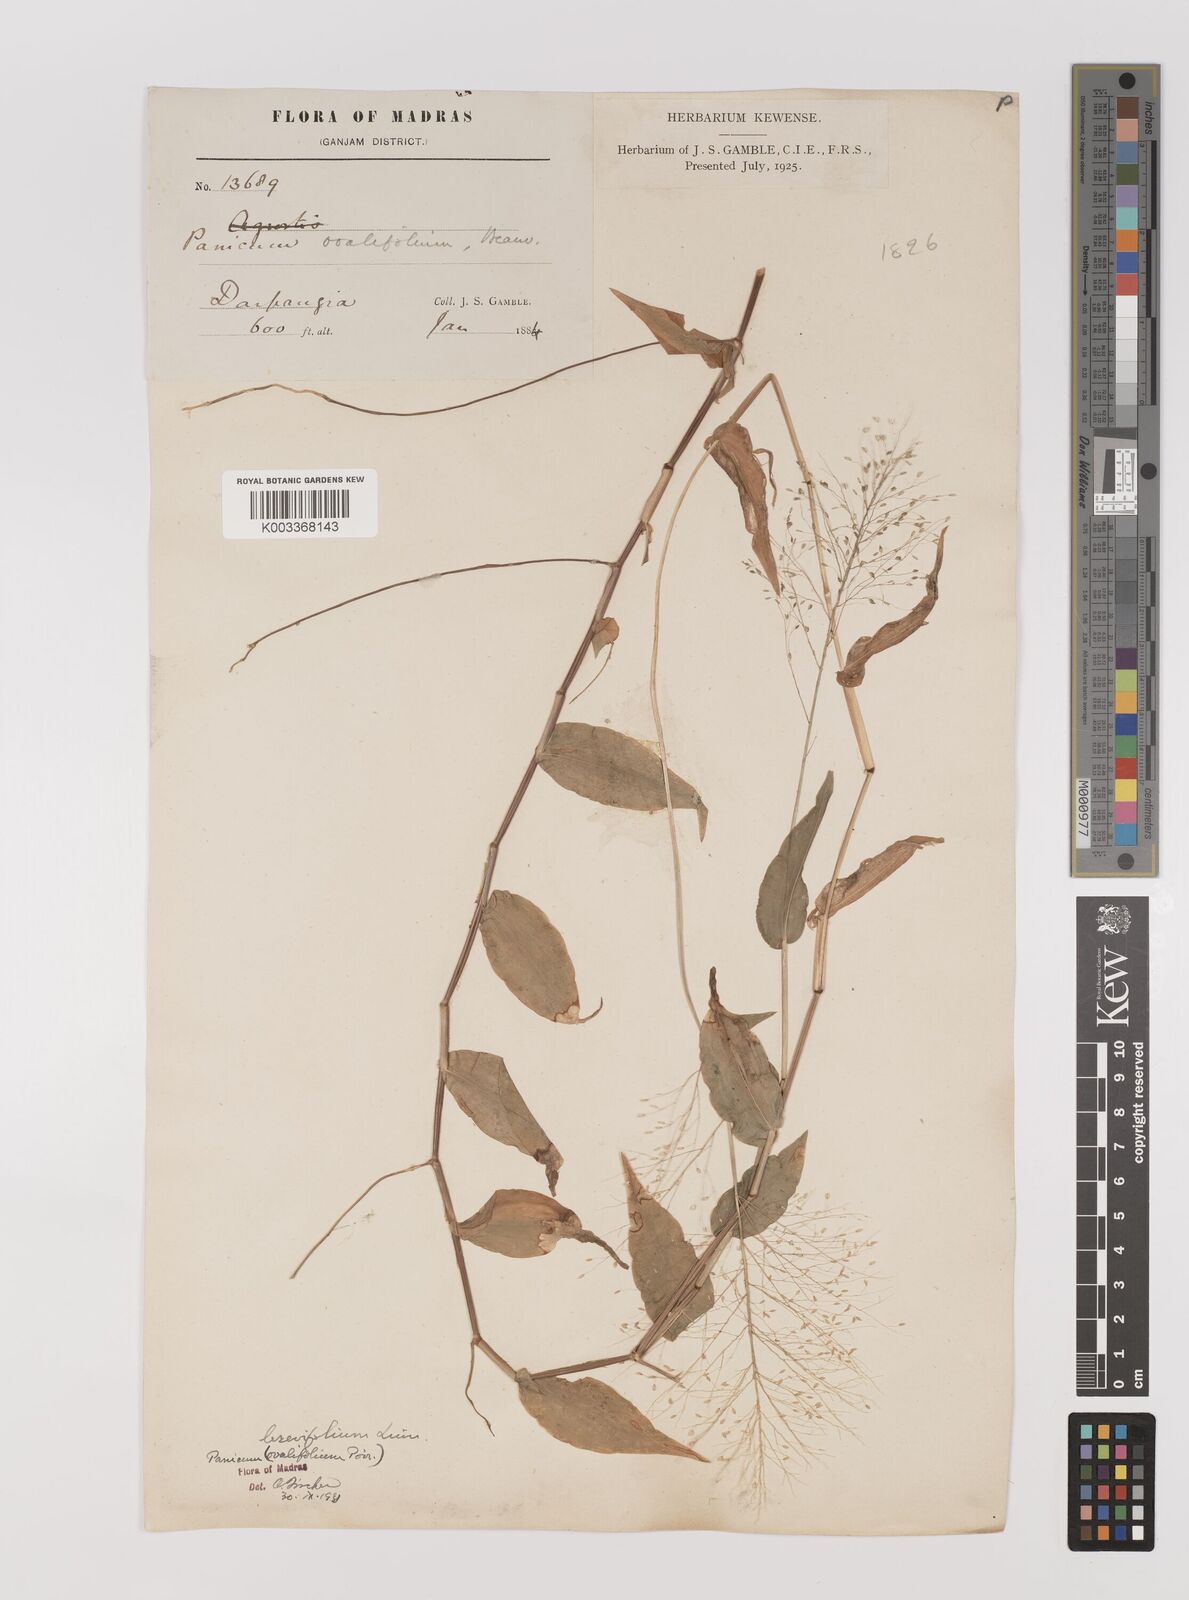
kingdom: Plantae
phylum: Tracheophyta
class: Liliopsida
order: Poales
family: Poaceae
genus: Panicum
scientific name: Panicum brevifolium
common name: Shortleaf panic grass
